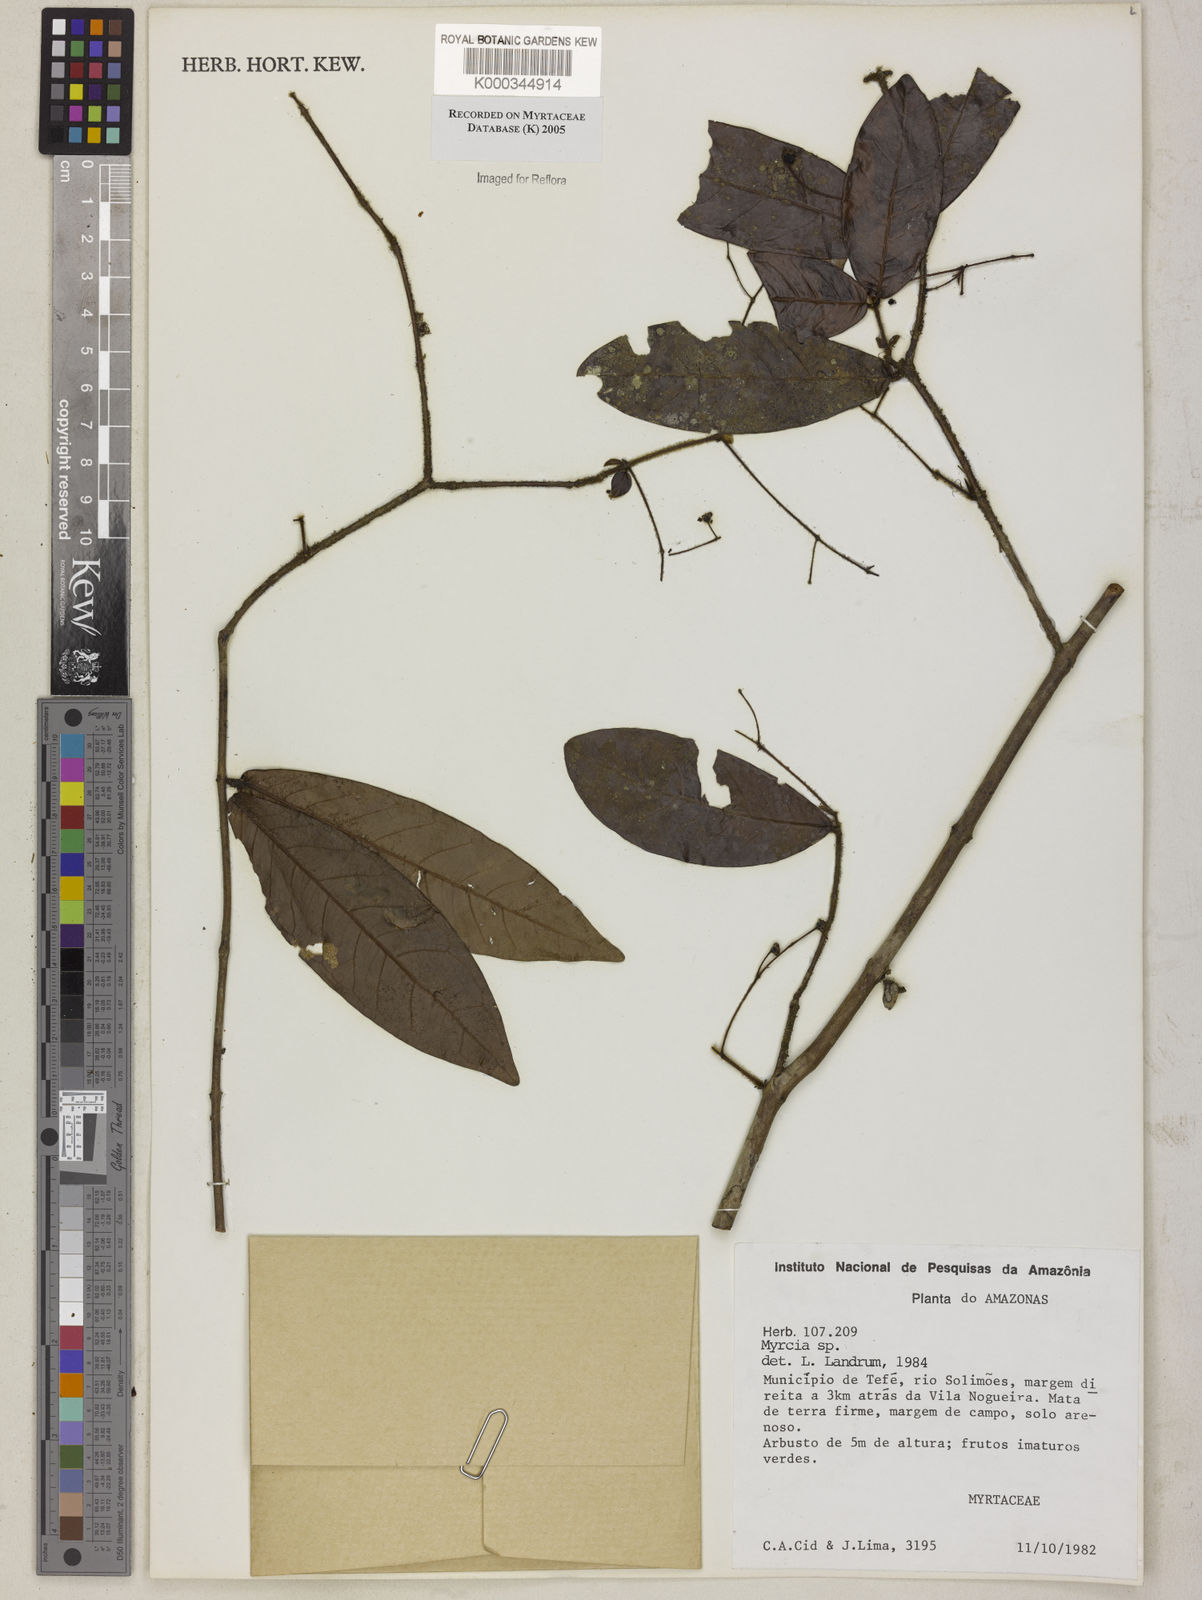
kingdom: Plantae
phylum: Tracheophyta
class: Magnoliopsida
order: Myrtales
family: Myrtaceae
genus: Myrcia
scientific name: Myrcia
